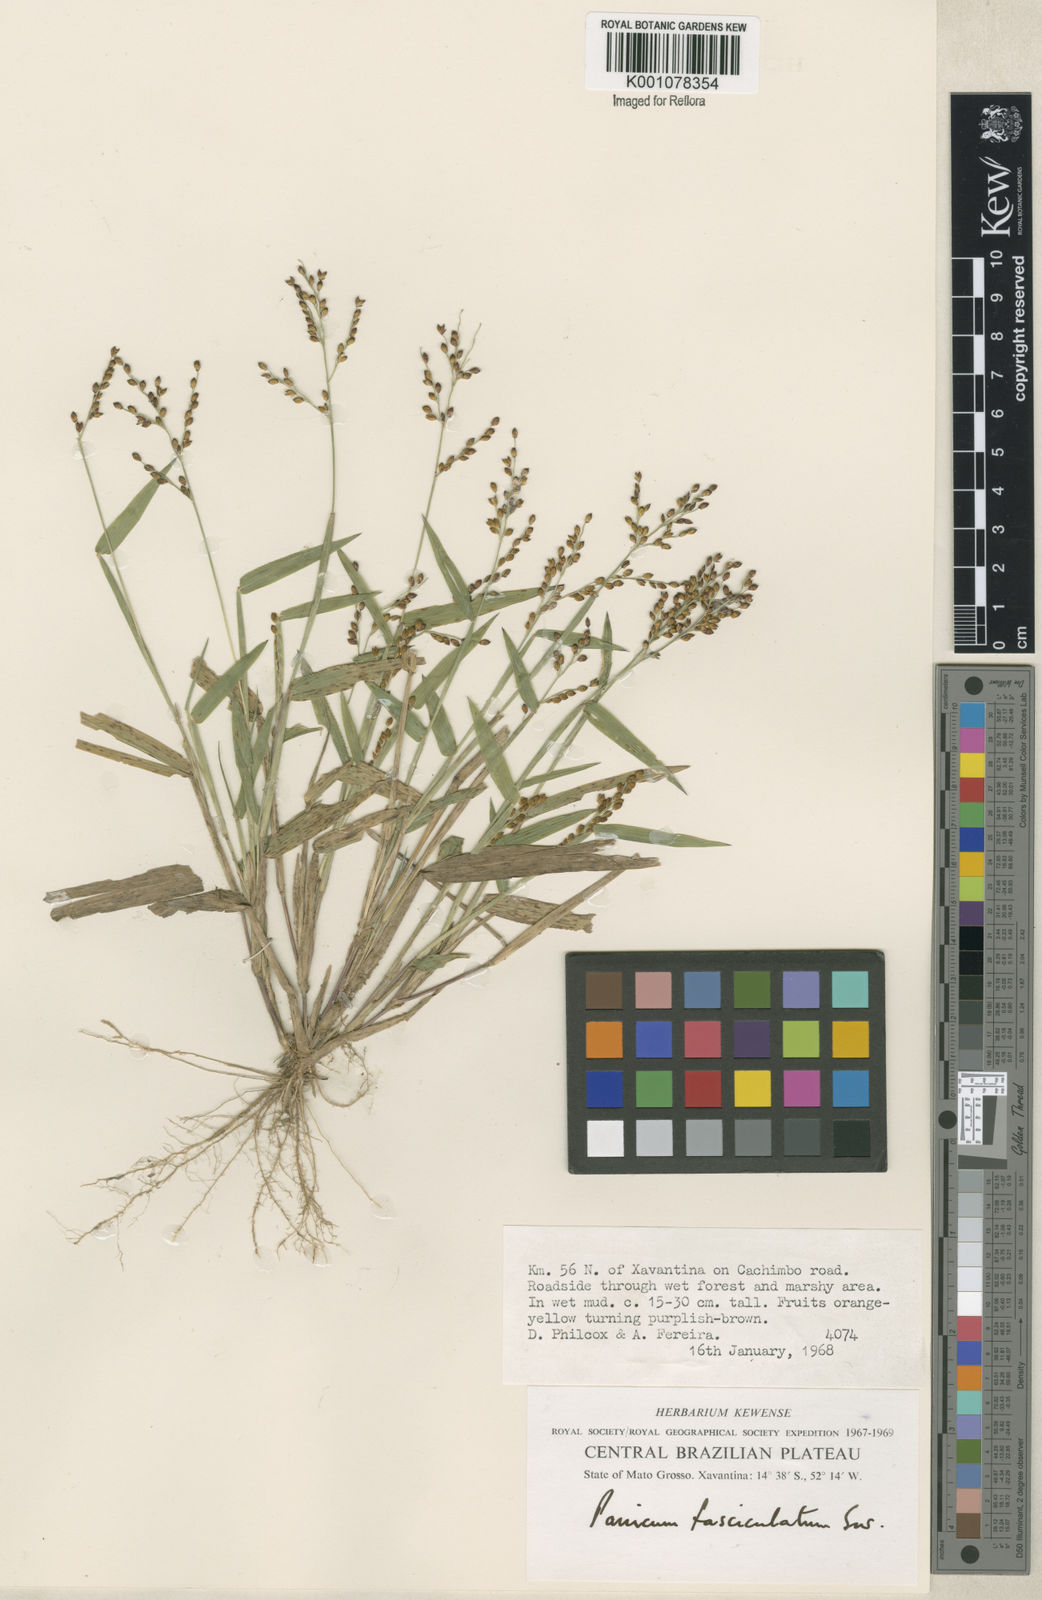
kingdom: Plantae
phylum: Tracheophyta
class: Liliopsida
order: Poales
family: Poaceae
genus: Urochloa
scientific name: Urochloa fusca
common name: Browntop signal grass
